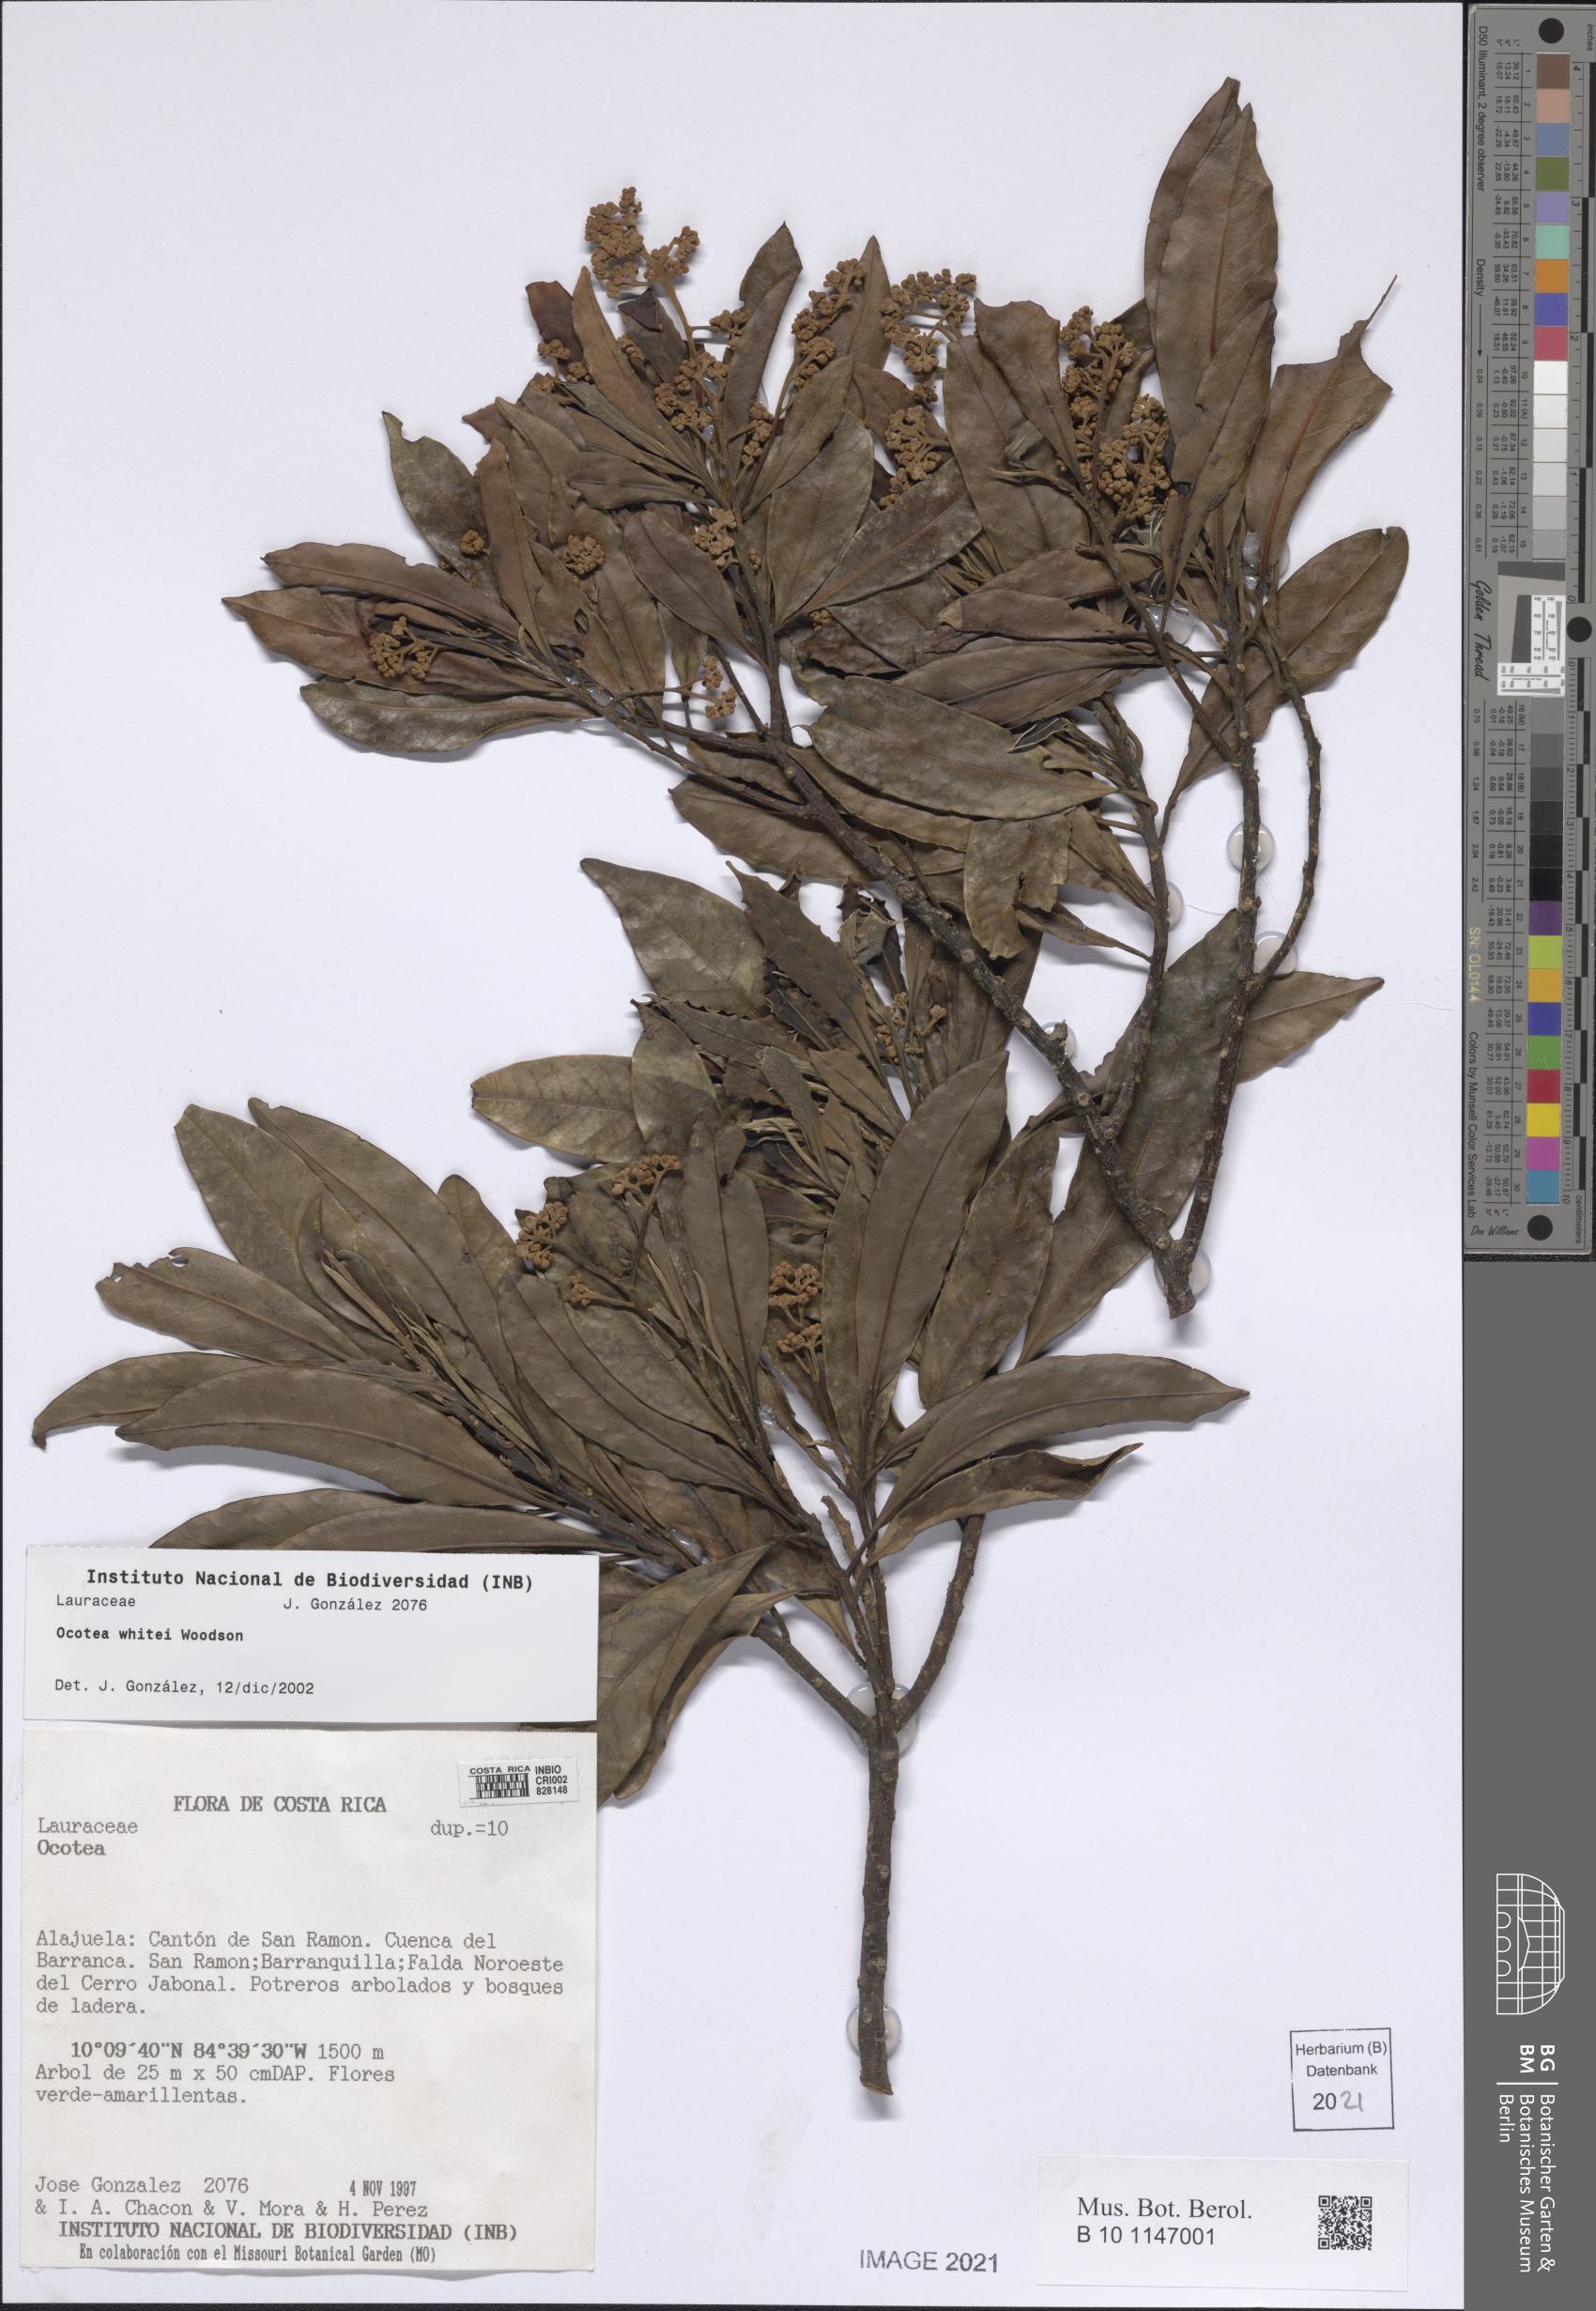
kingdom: Plantae
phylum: Tracheophyta
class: Magnoliopsida
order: Laurales
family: Lauraceae
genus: Ocotea
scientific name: Ocotea whitei
